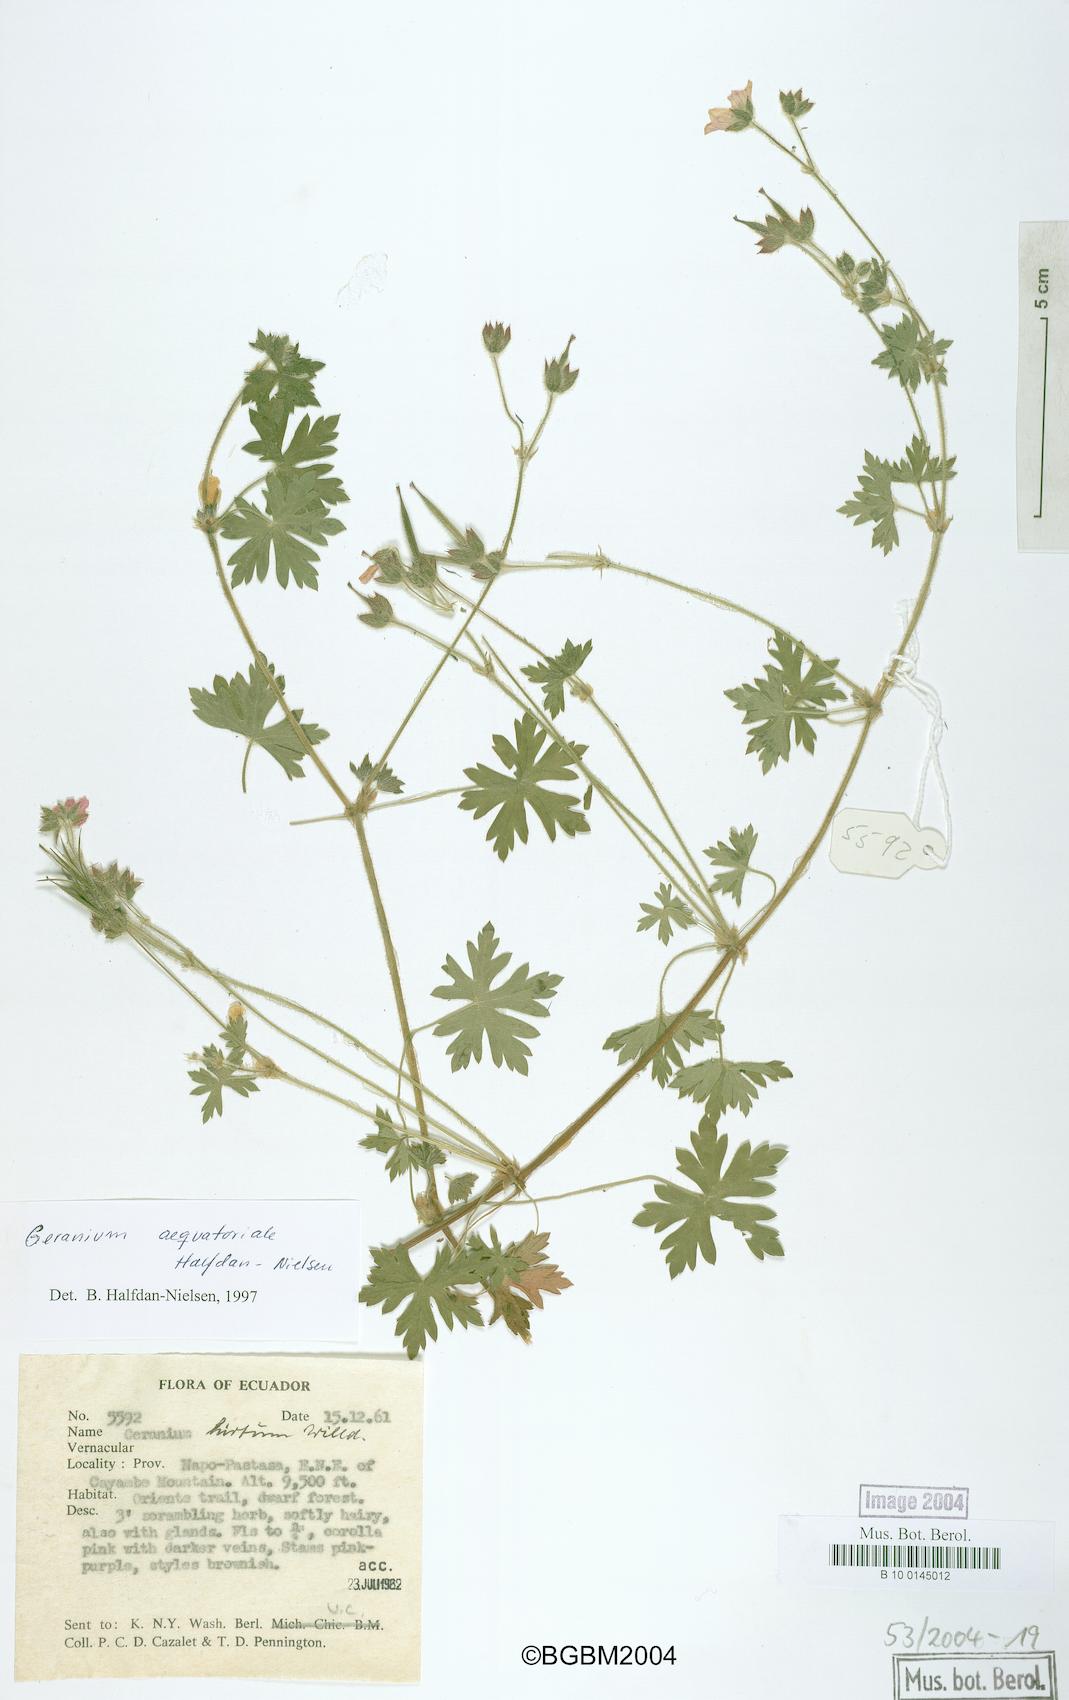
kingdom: Plantae
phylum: Tracheophyta
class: Magnoliopsida
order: Geraniales
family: Geraniaceae
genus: Geranium
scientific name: Geranium killipii
